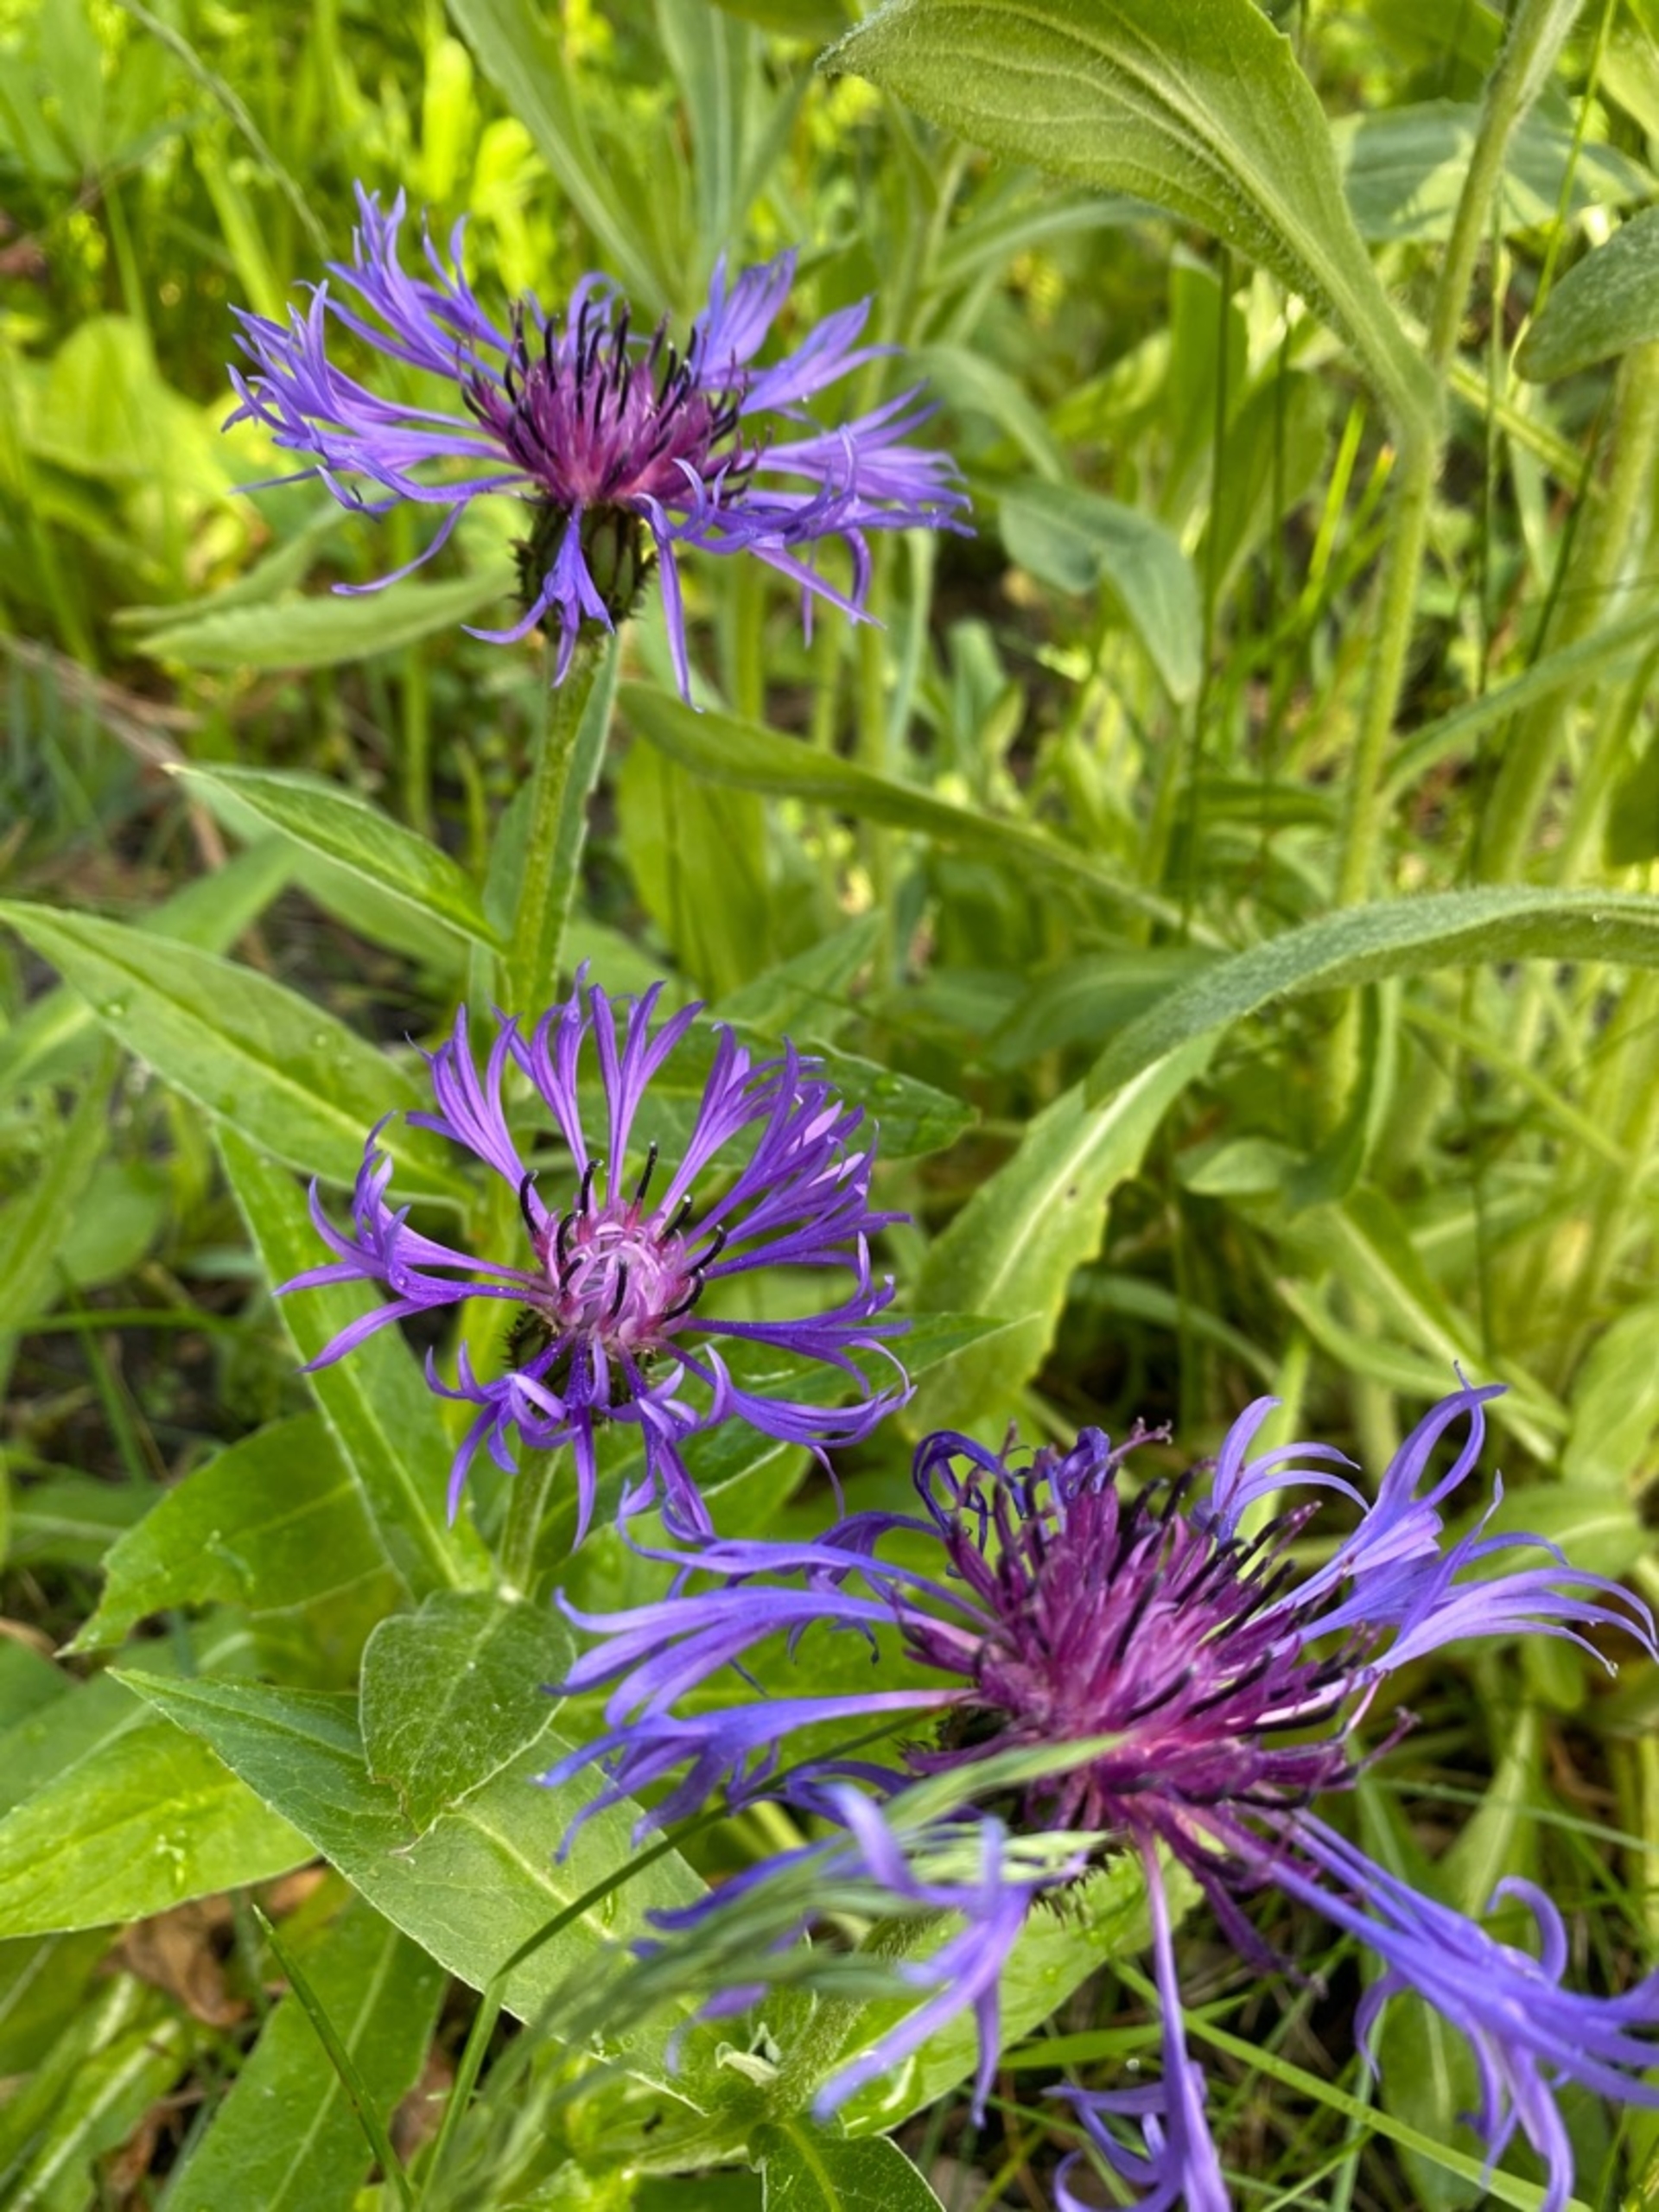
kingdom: Plantae
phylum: Tracheophyta
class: Magnoliopsida
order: Asterales
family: Asteraceae
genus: Centaurea
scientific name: Centaurea montana
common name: Bjerg-knopurt
